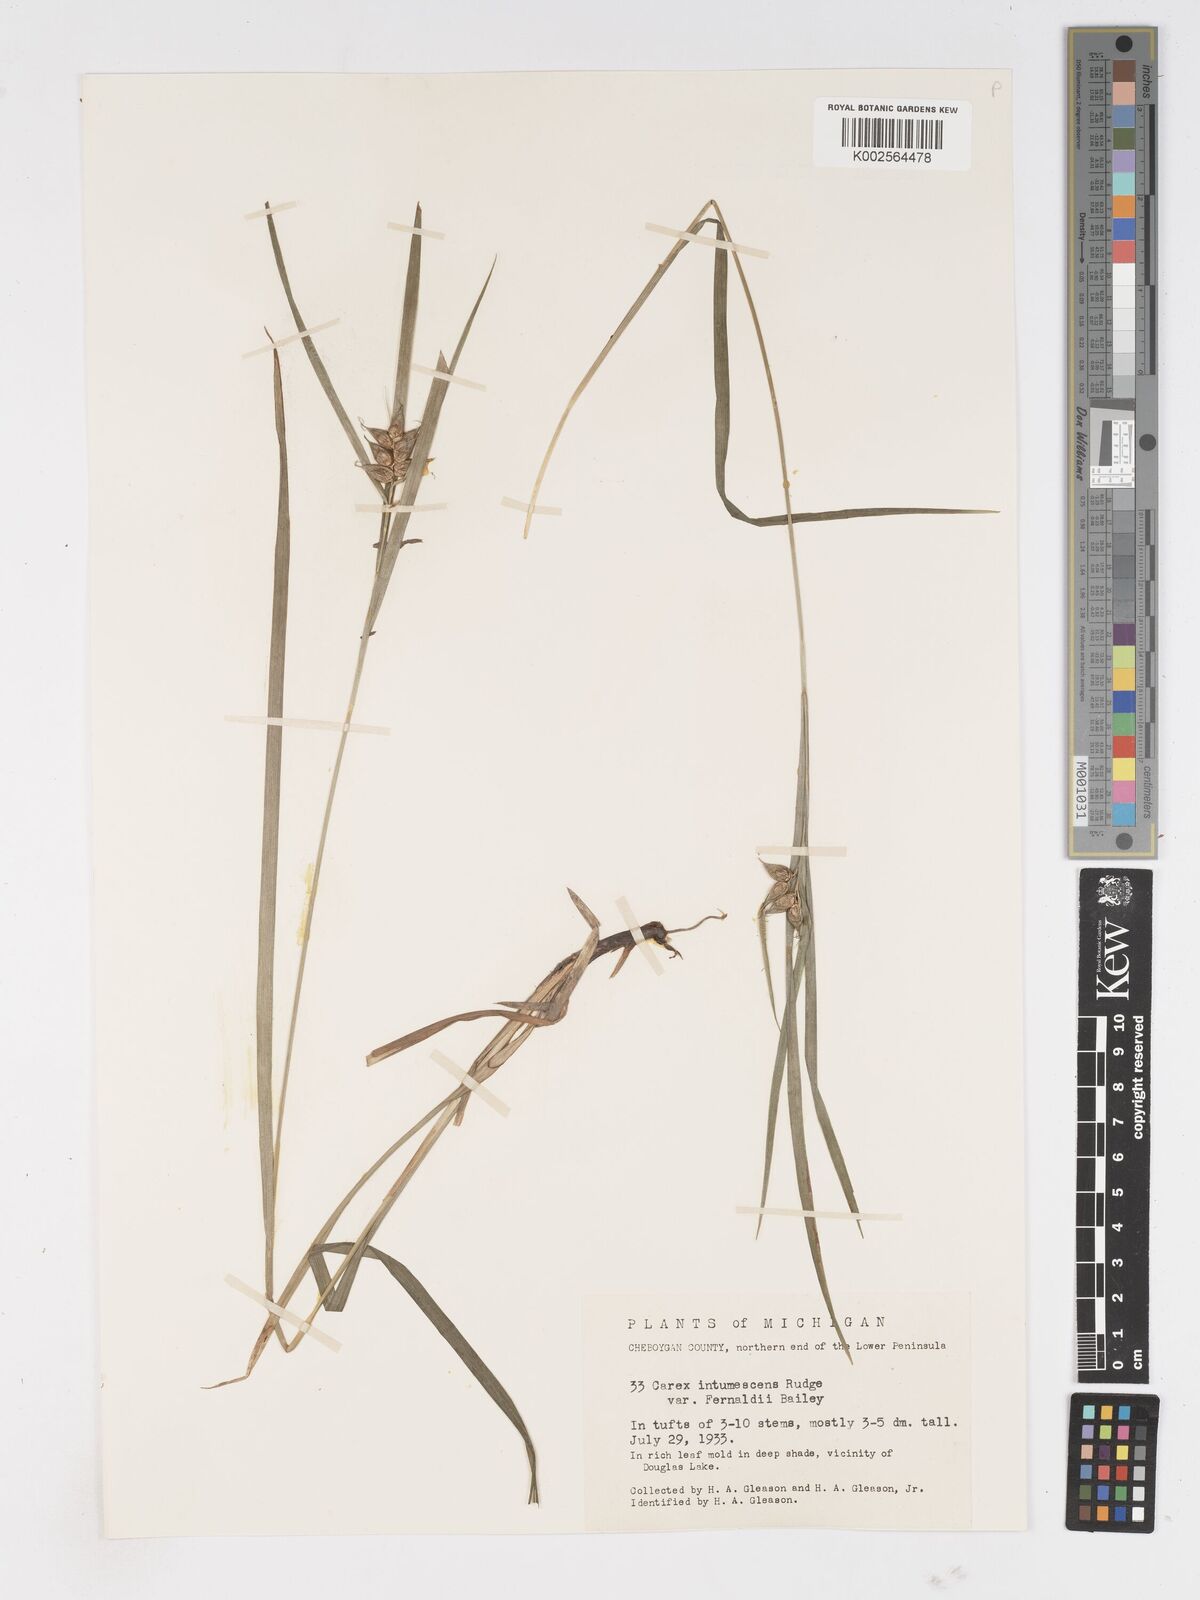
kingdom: Plantae
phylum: Tracheophyta
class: Liliopsida
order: Poales
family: Cyperaceae
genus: Carex
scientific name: Carex intumescens
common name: Greater bladder sedge
